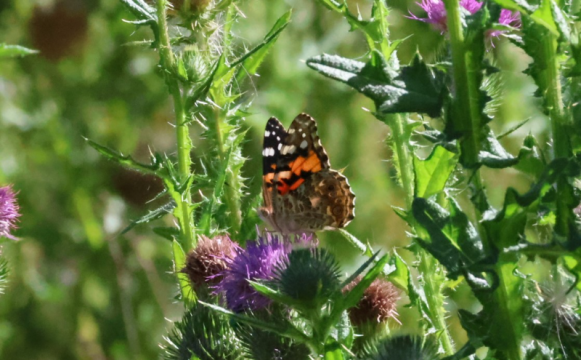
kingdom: Animalia
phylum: Arthropoda
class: Insecta
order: Lepidoptera
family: Nymphalidae
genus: Vanessa
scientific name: Vanessa cardui
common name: Painted Lady
